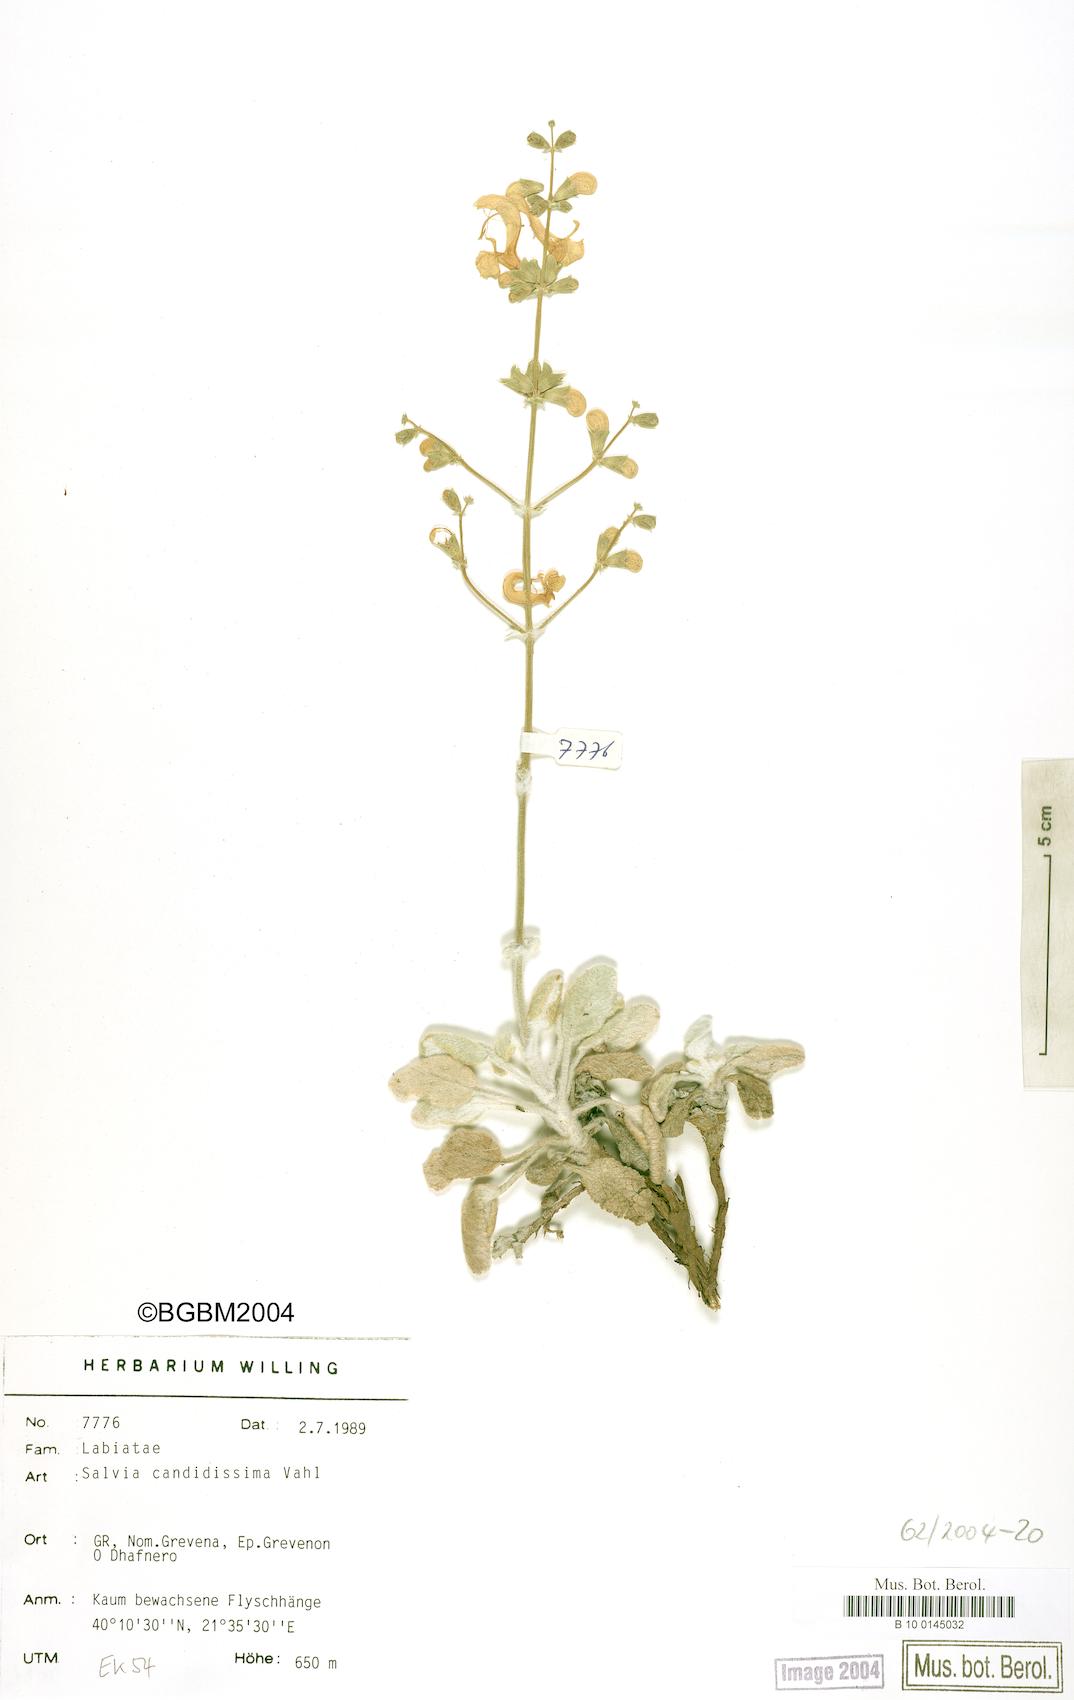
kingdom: Plantae
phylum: Tracheophyta
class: Magnoliopsida
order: Lamiales
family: Lamiaceae
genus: Salvia
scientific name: Salvia candidissima
